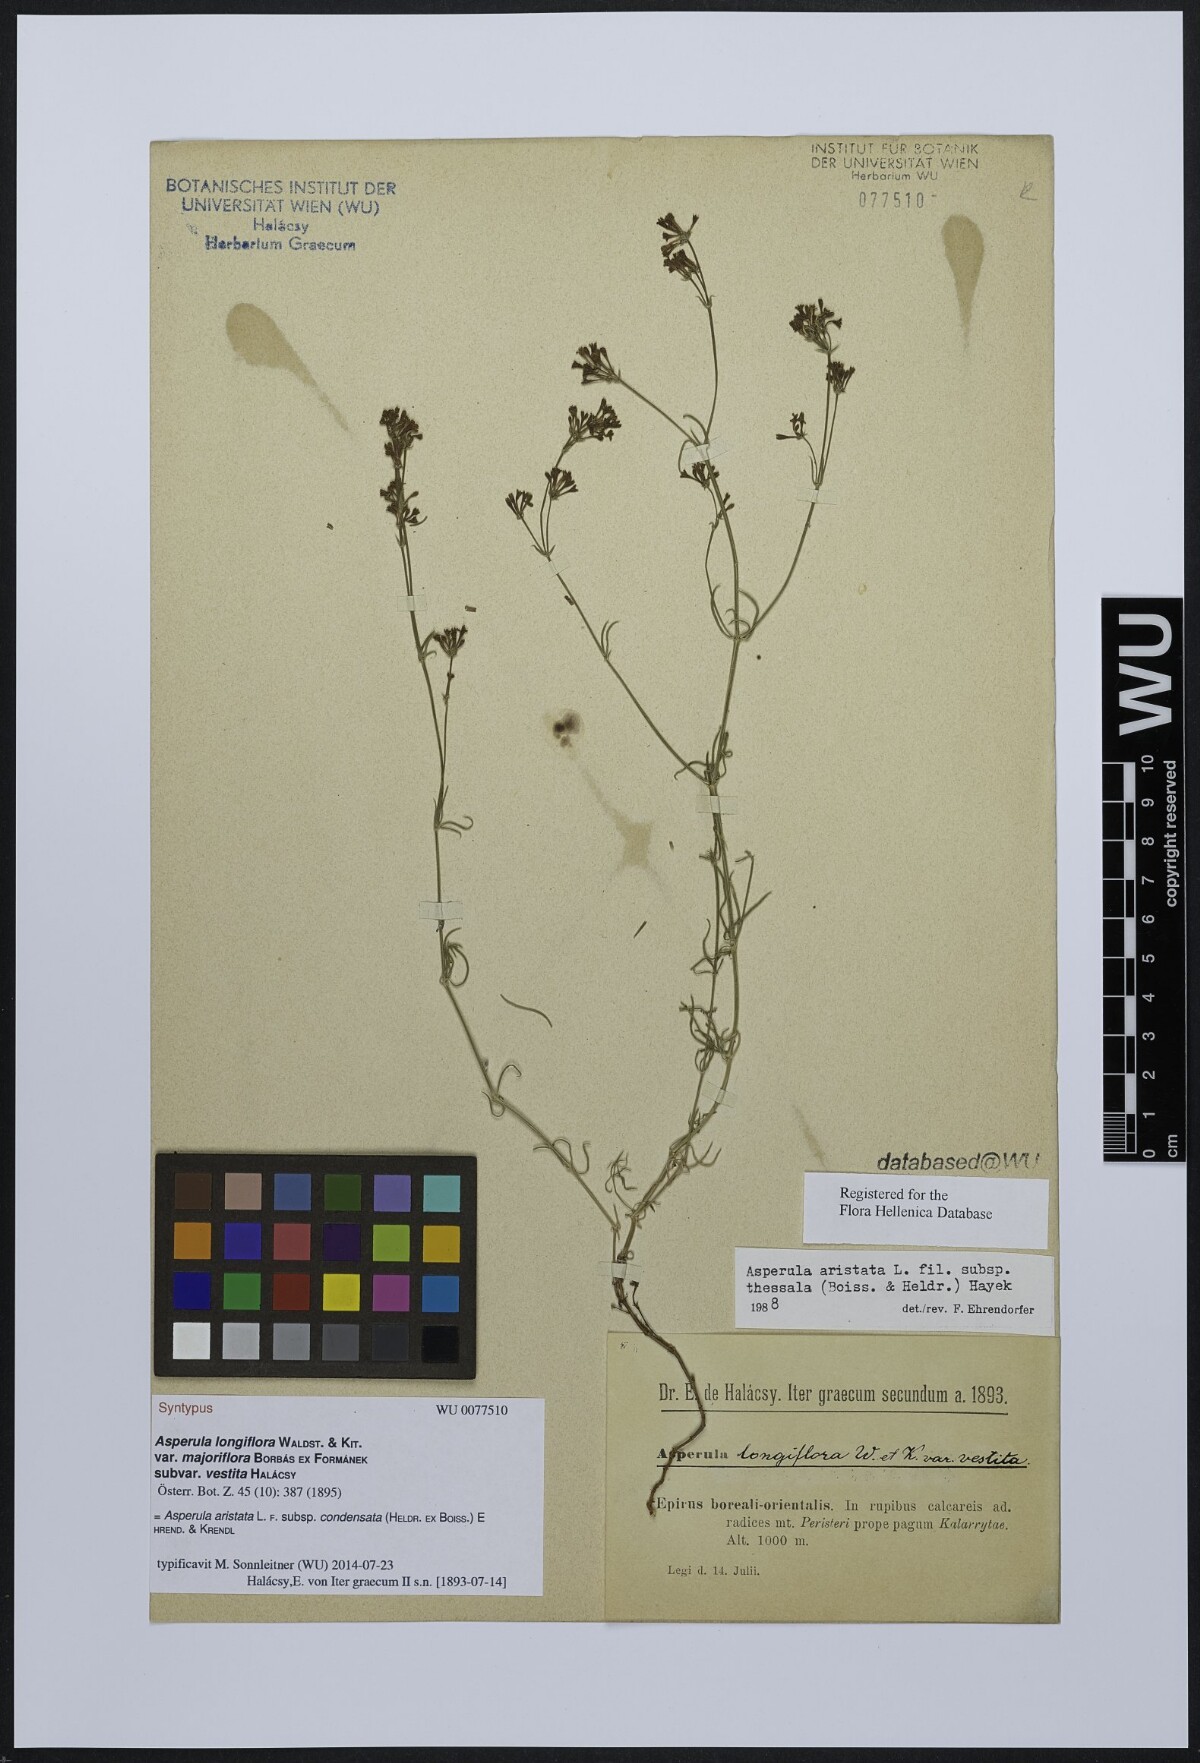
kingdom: Plantae
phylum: Tracheophyta
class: Magnoliopsida
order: Gentianales
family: Rubiaceae
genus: Asperula
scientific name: Asperula longiflora
